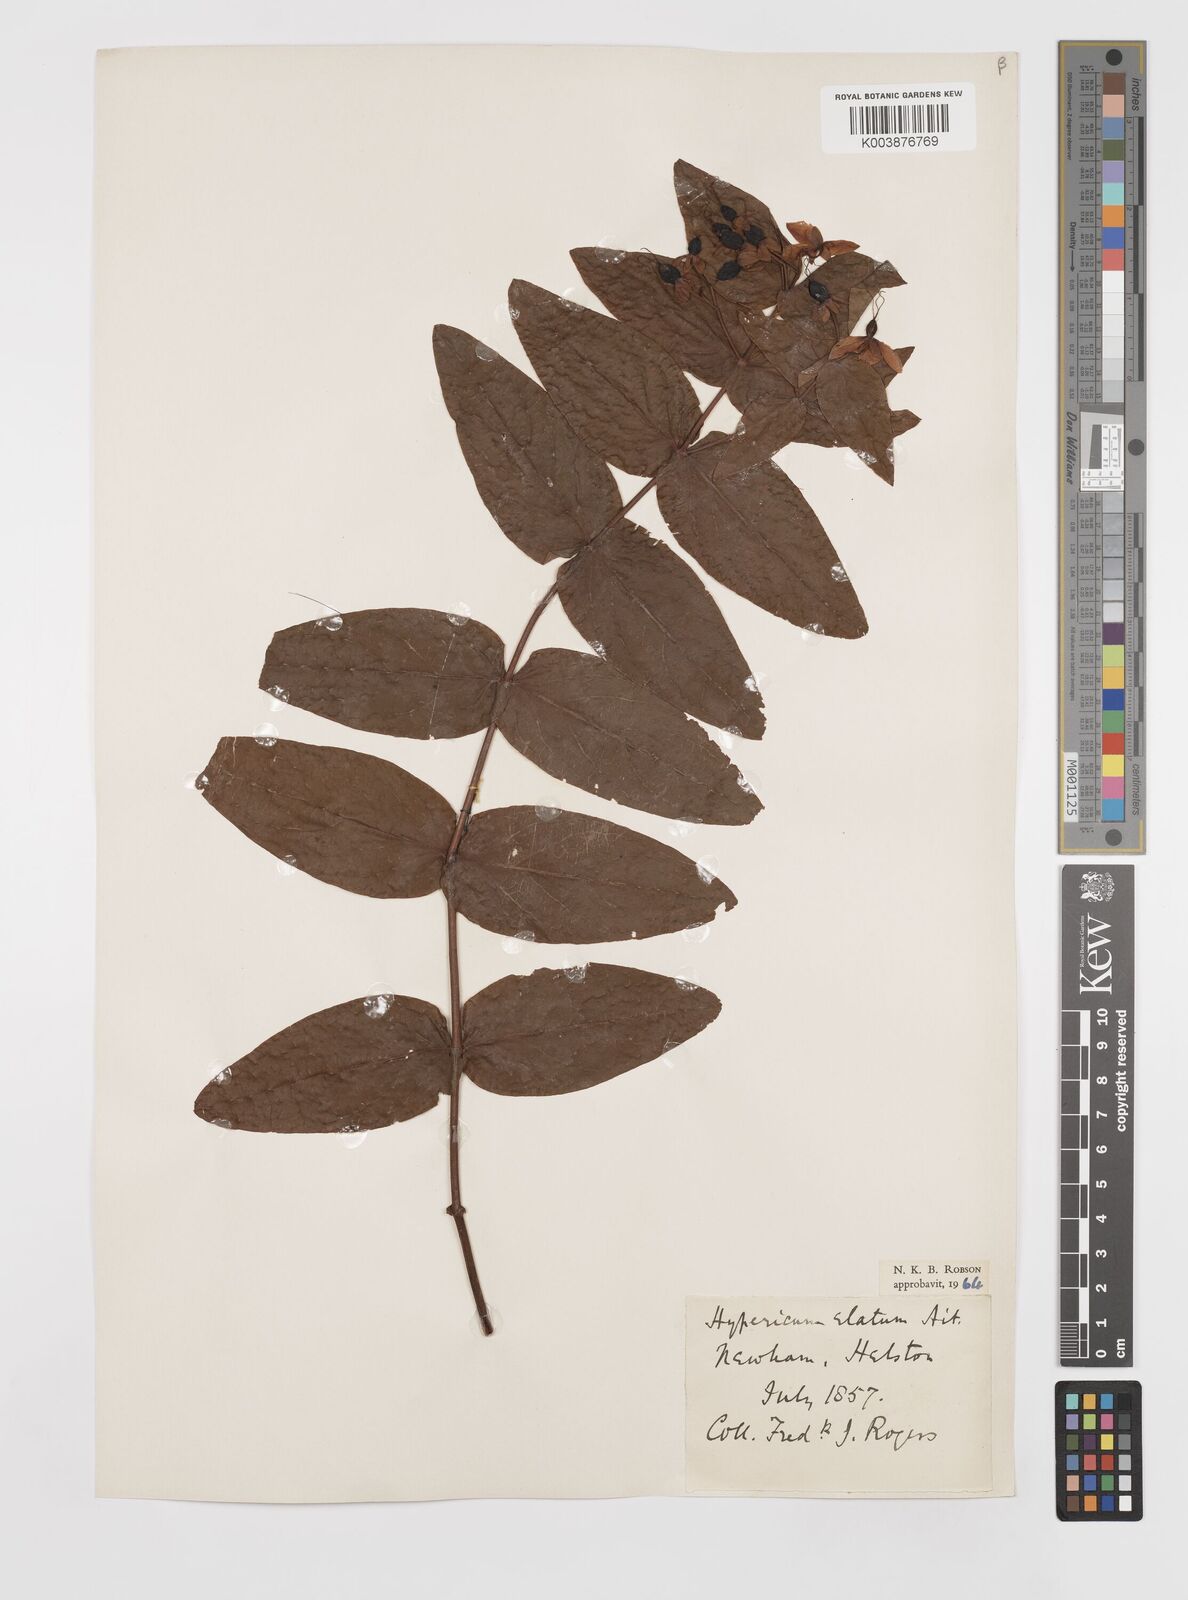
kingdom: Plantae
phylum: Tracheophyta
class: Magnoliopsida
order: Malpighiales
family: Hypericaceae
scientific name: Hypericaceae
